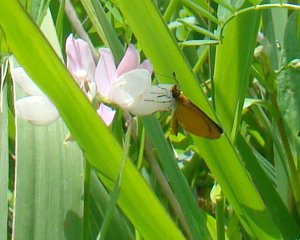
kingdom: Animalia
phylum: Arthropoda
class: Insecta
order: Lepidoptera
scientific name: Lepidoptera
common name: Butterflies
